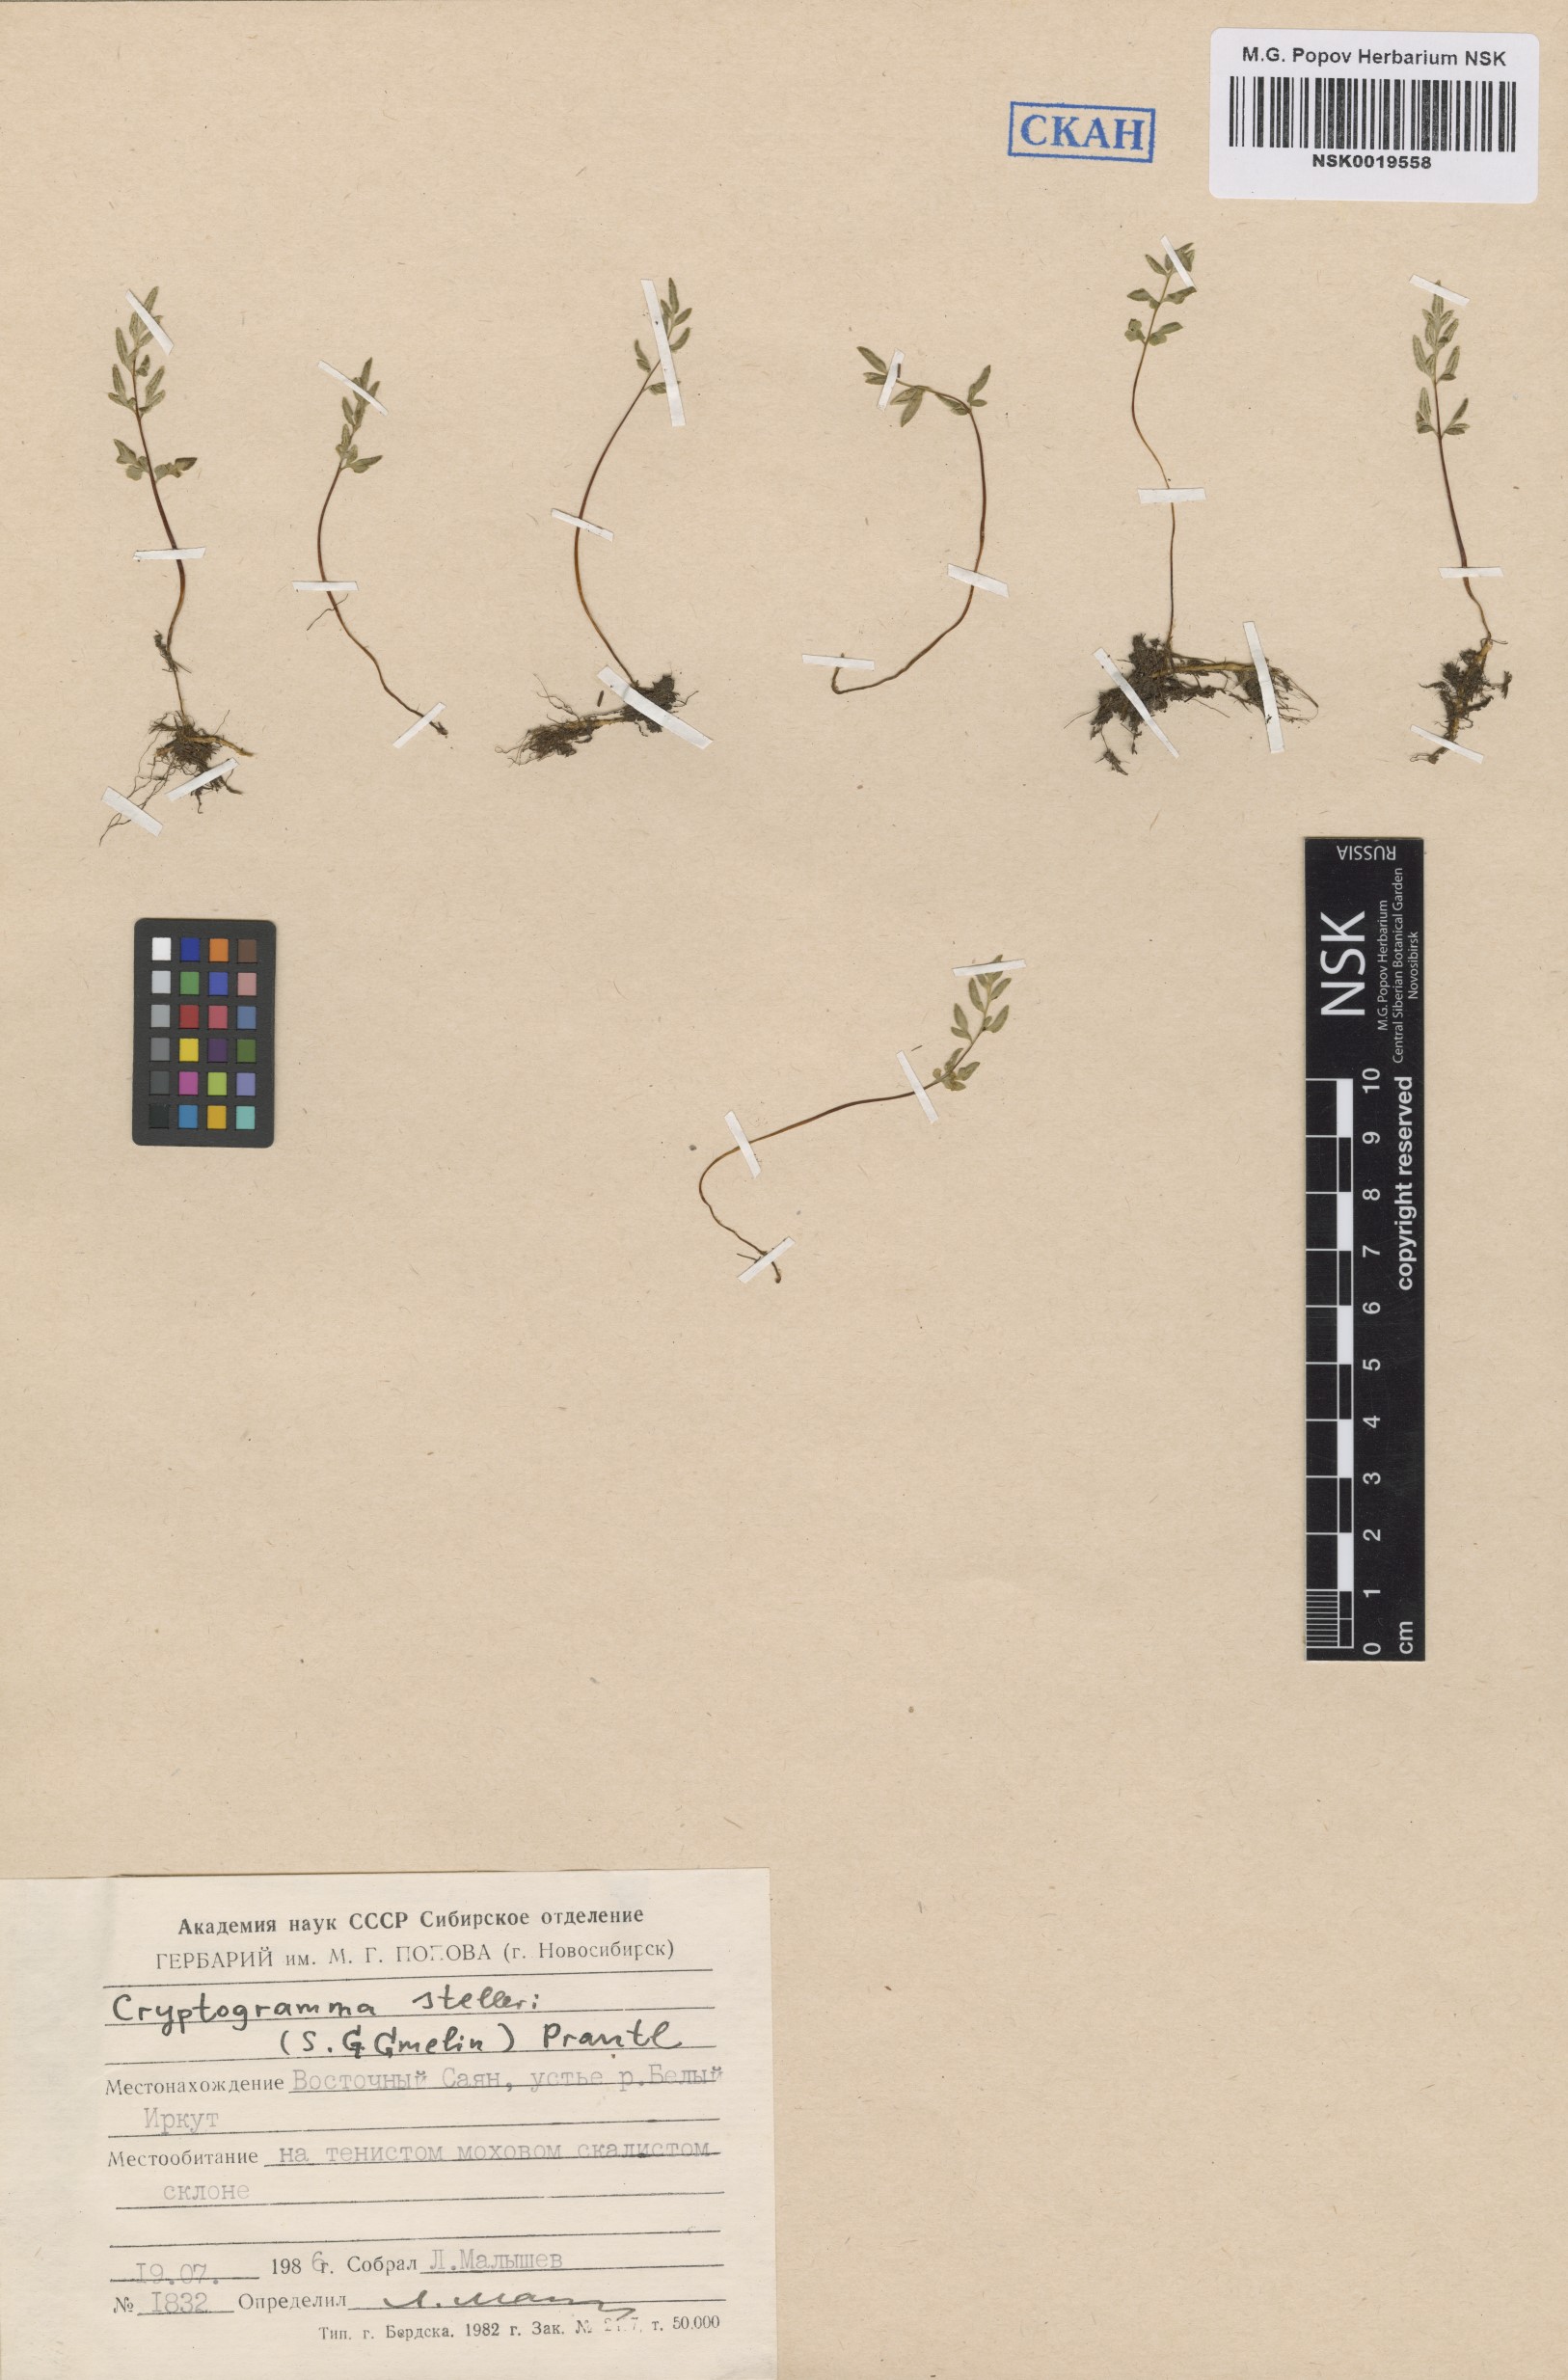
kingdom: Plantae
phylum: Tracheophyta
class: Polypodiopsida
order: Polypodiales
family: Pteridaceae
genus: Cryptogramma
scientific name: Cryptogramma stelleri
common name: Cliff-brake
